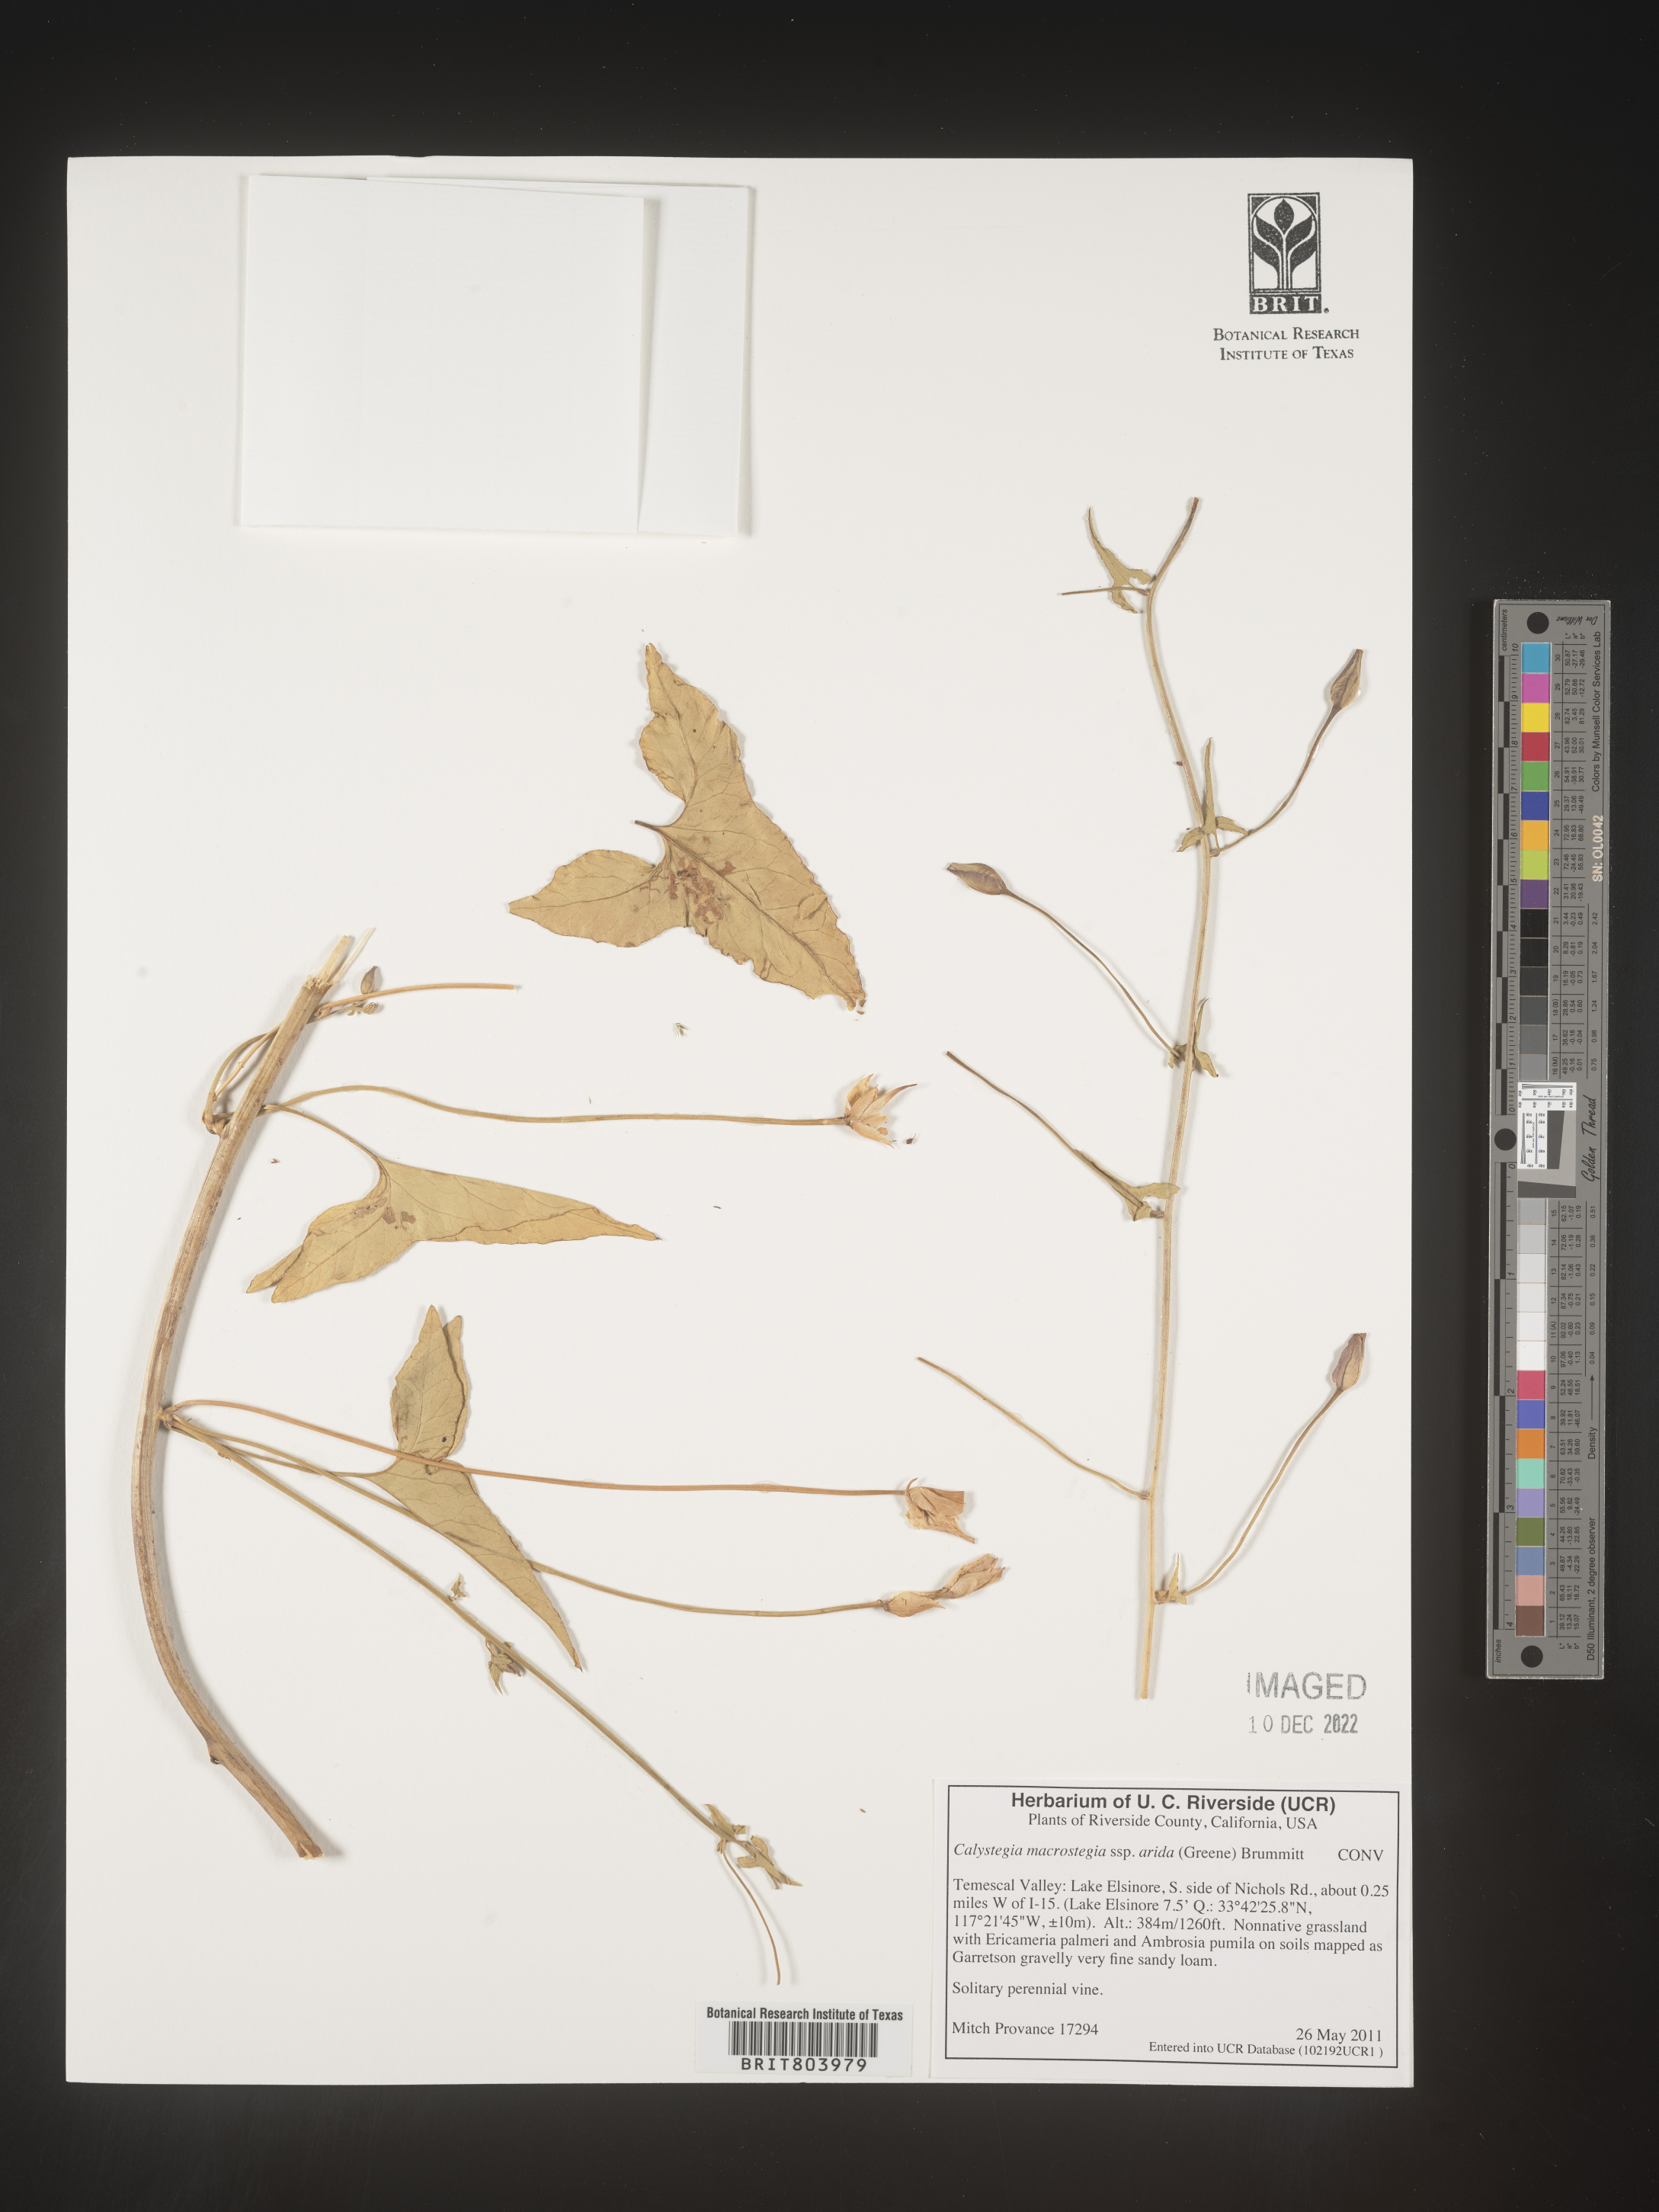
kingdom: Plantae
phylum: Tracheophyta
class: Magnoliopsida
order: Solanales
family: Convolvulaceae
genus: Calystegia
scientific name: Calystegia
